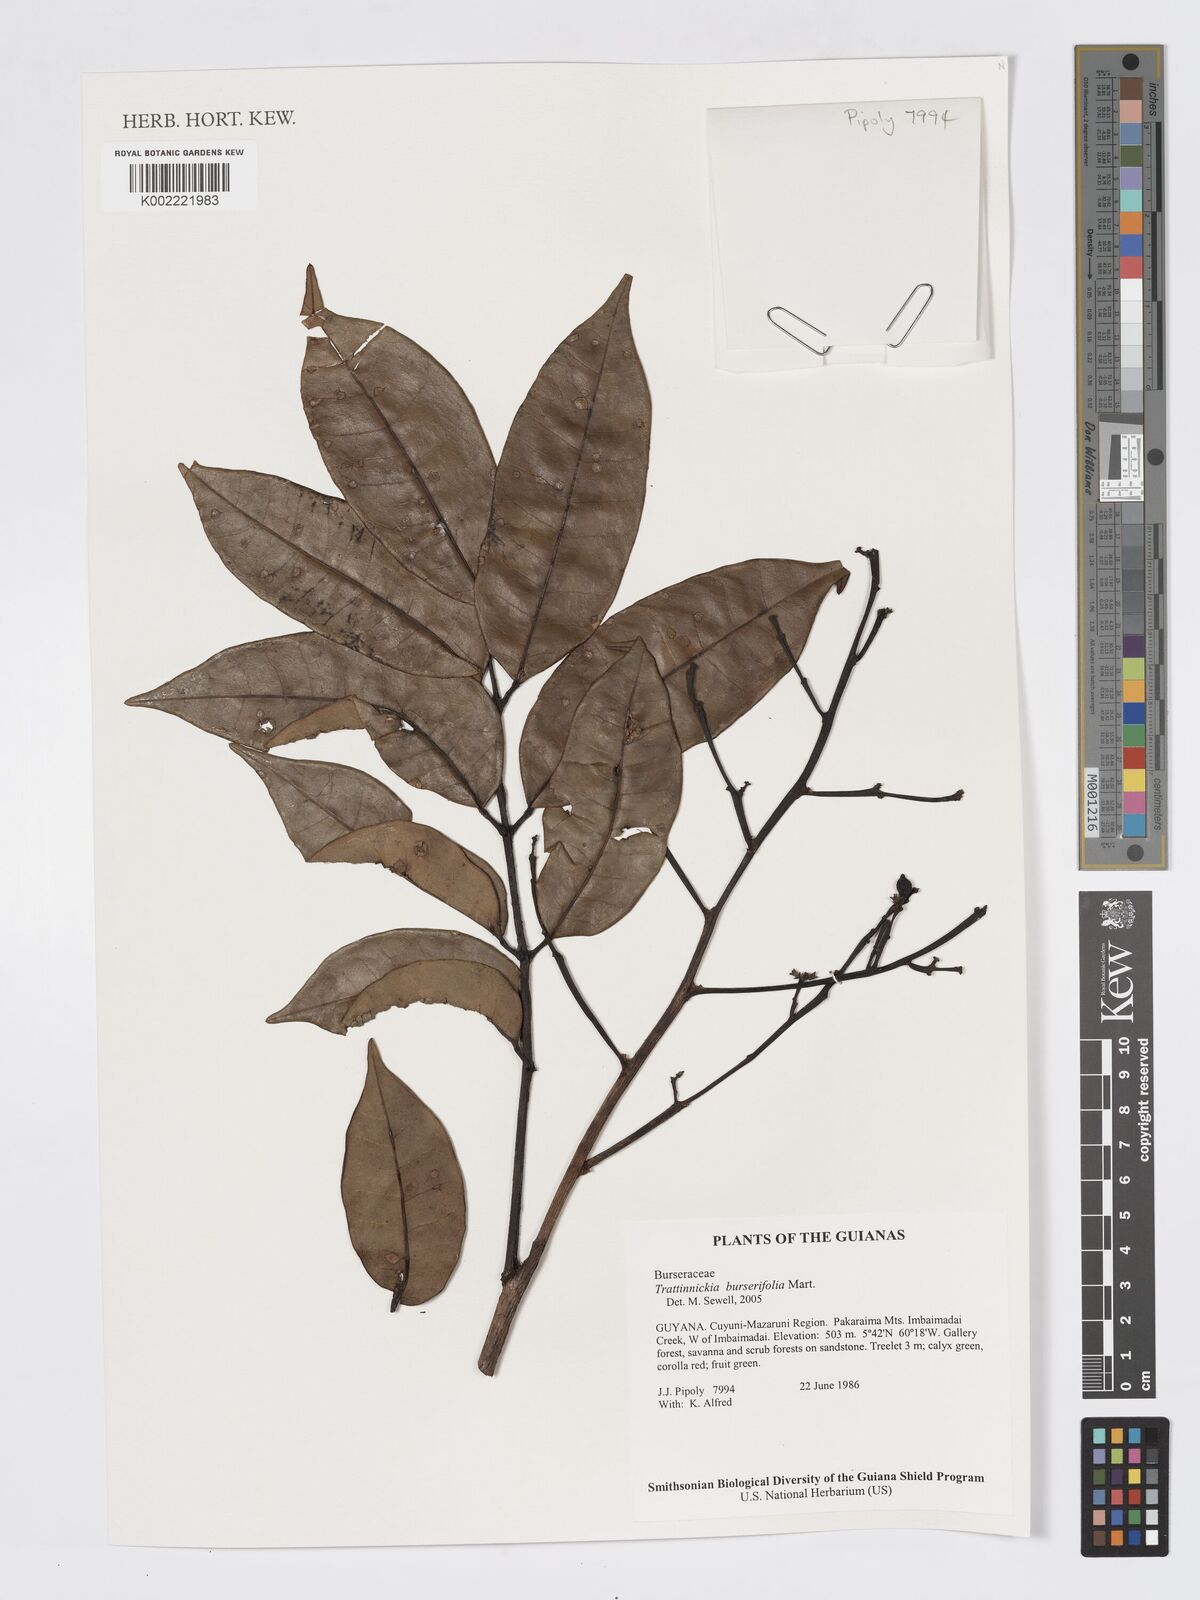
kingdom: Plantae
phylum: Tracheophyta
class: Magnoliopsida
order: Sapindales
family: Burseraceae
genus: Trattinnickia
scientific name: Trattinnickia burserifolia
